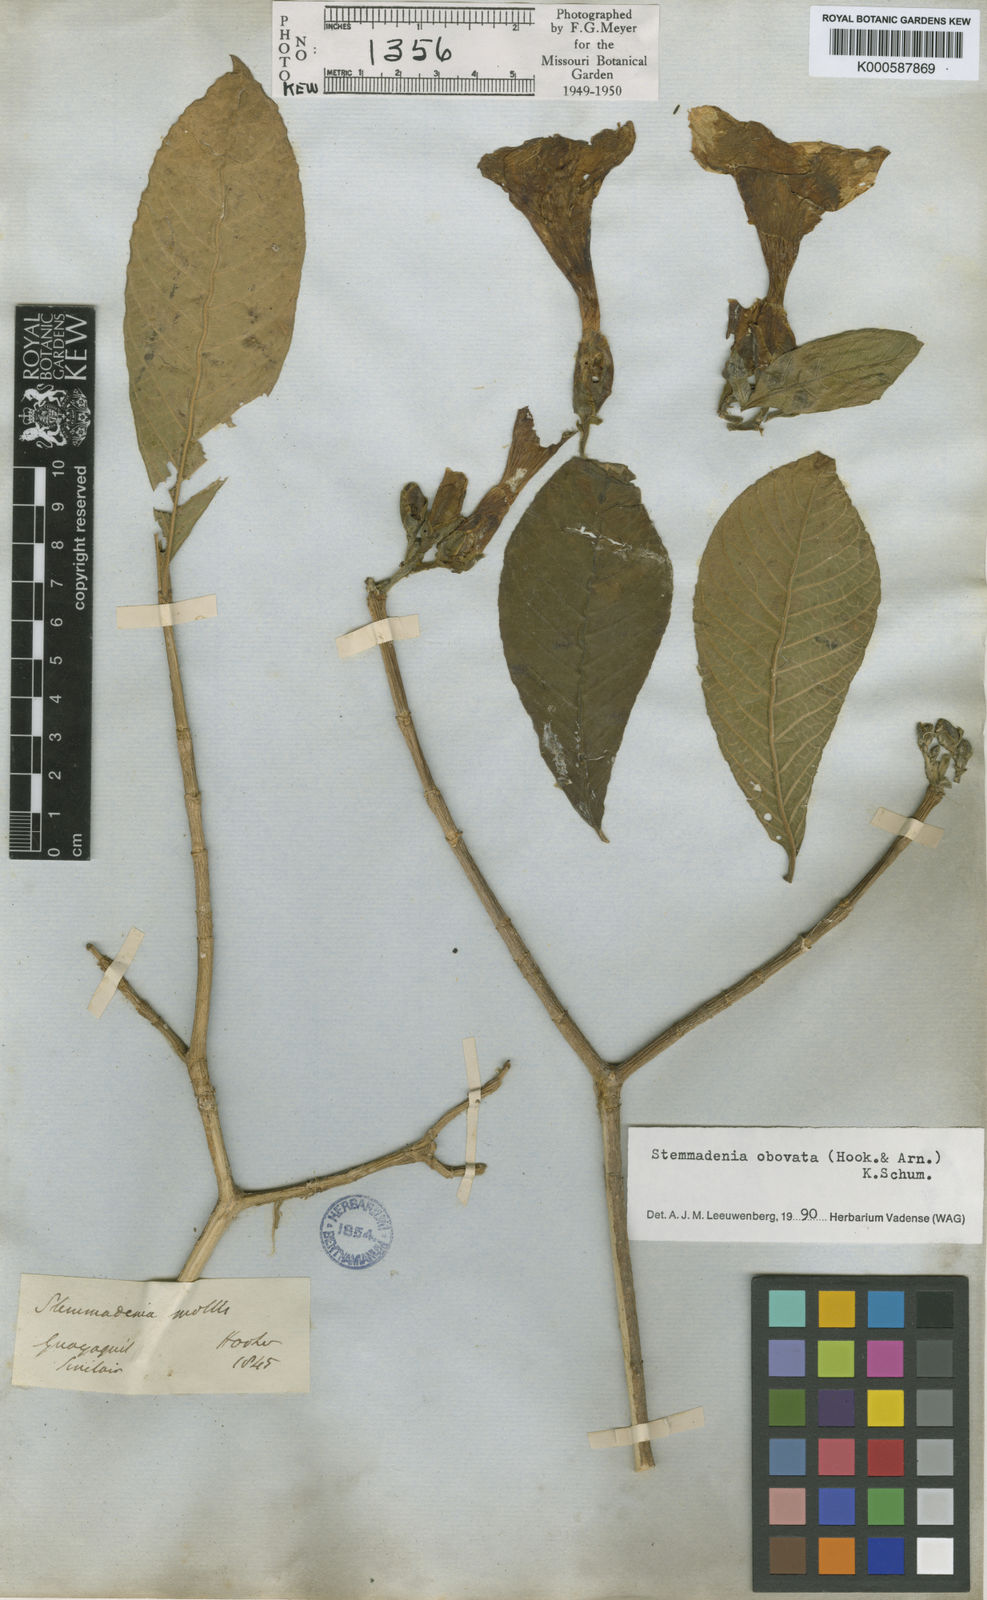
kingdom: Plantae
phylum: Tracheophyta
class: Magnoliopsida
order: Gentianales
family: Apocynaceae
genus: Tabernaemontana
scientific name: Tabernaemontana glabra
